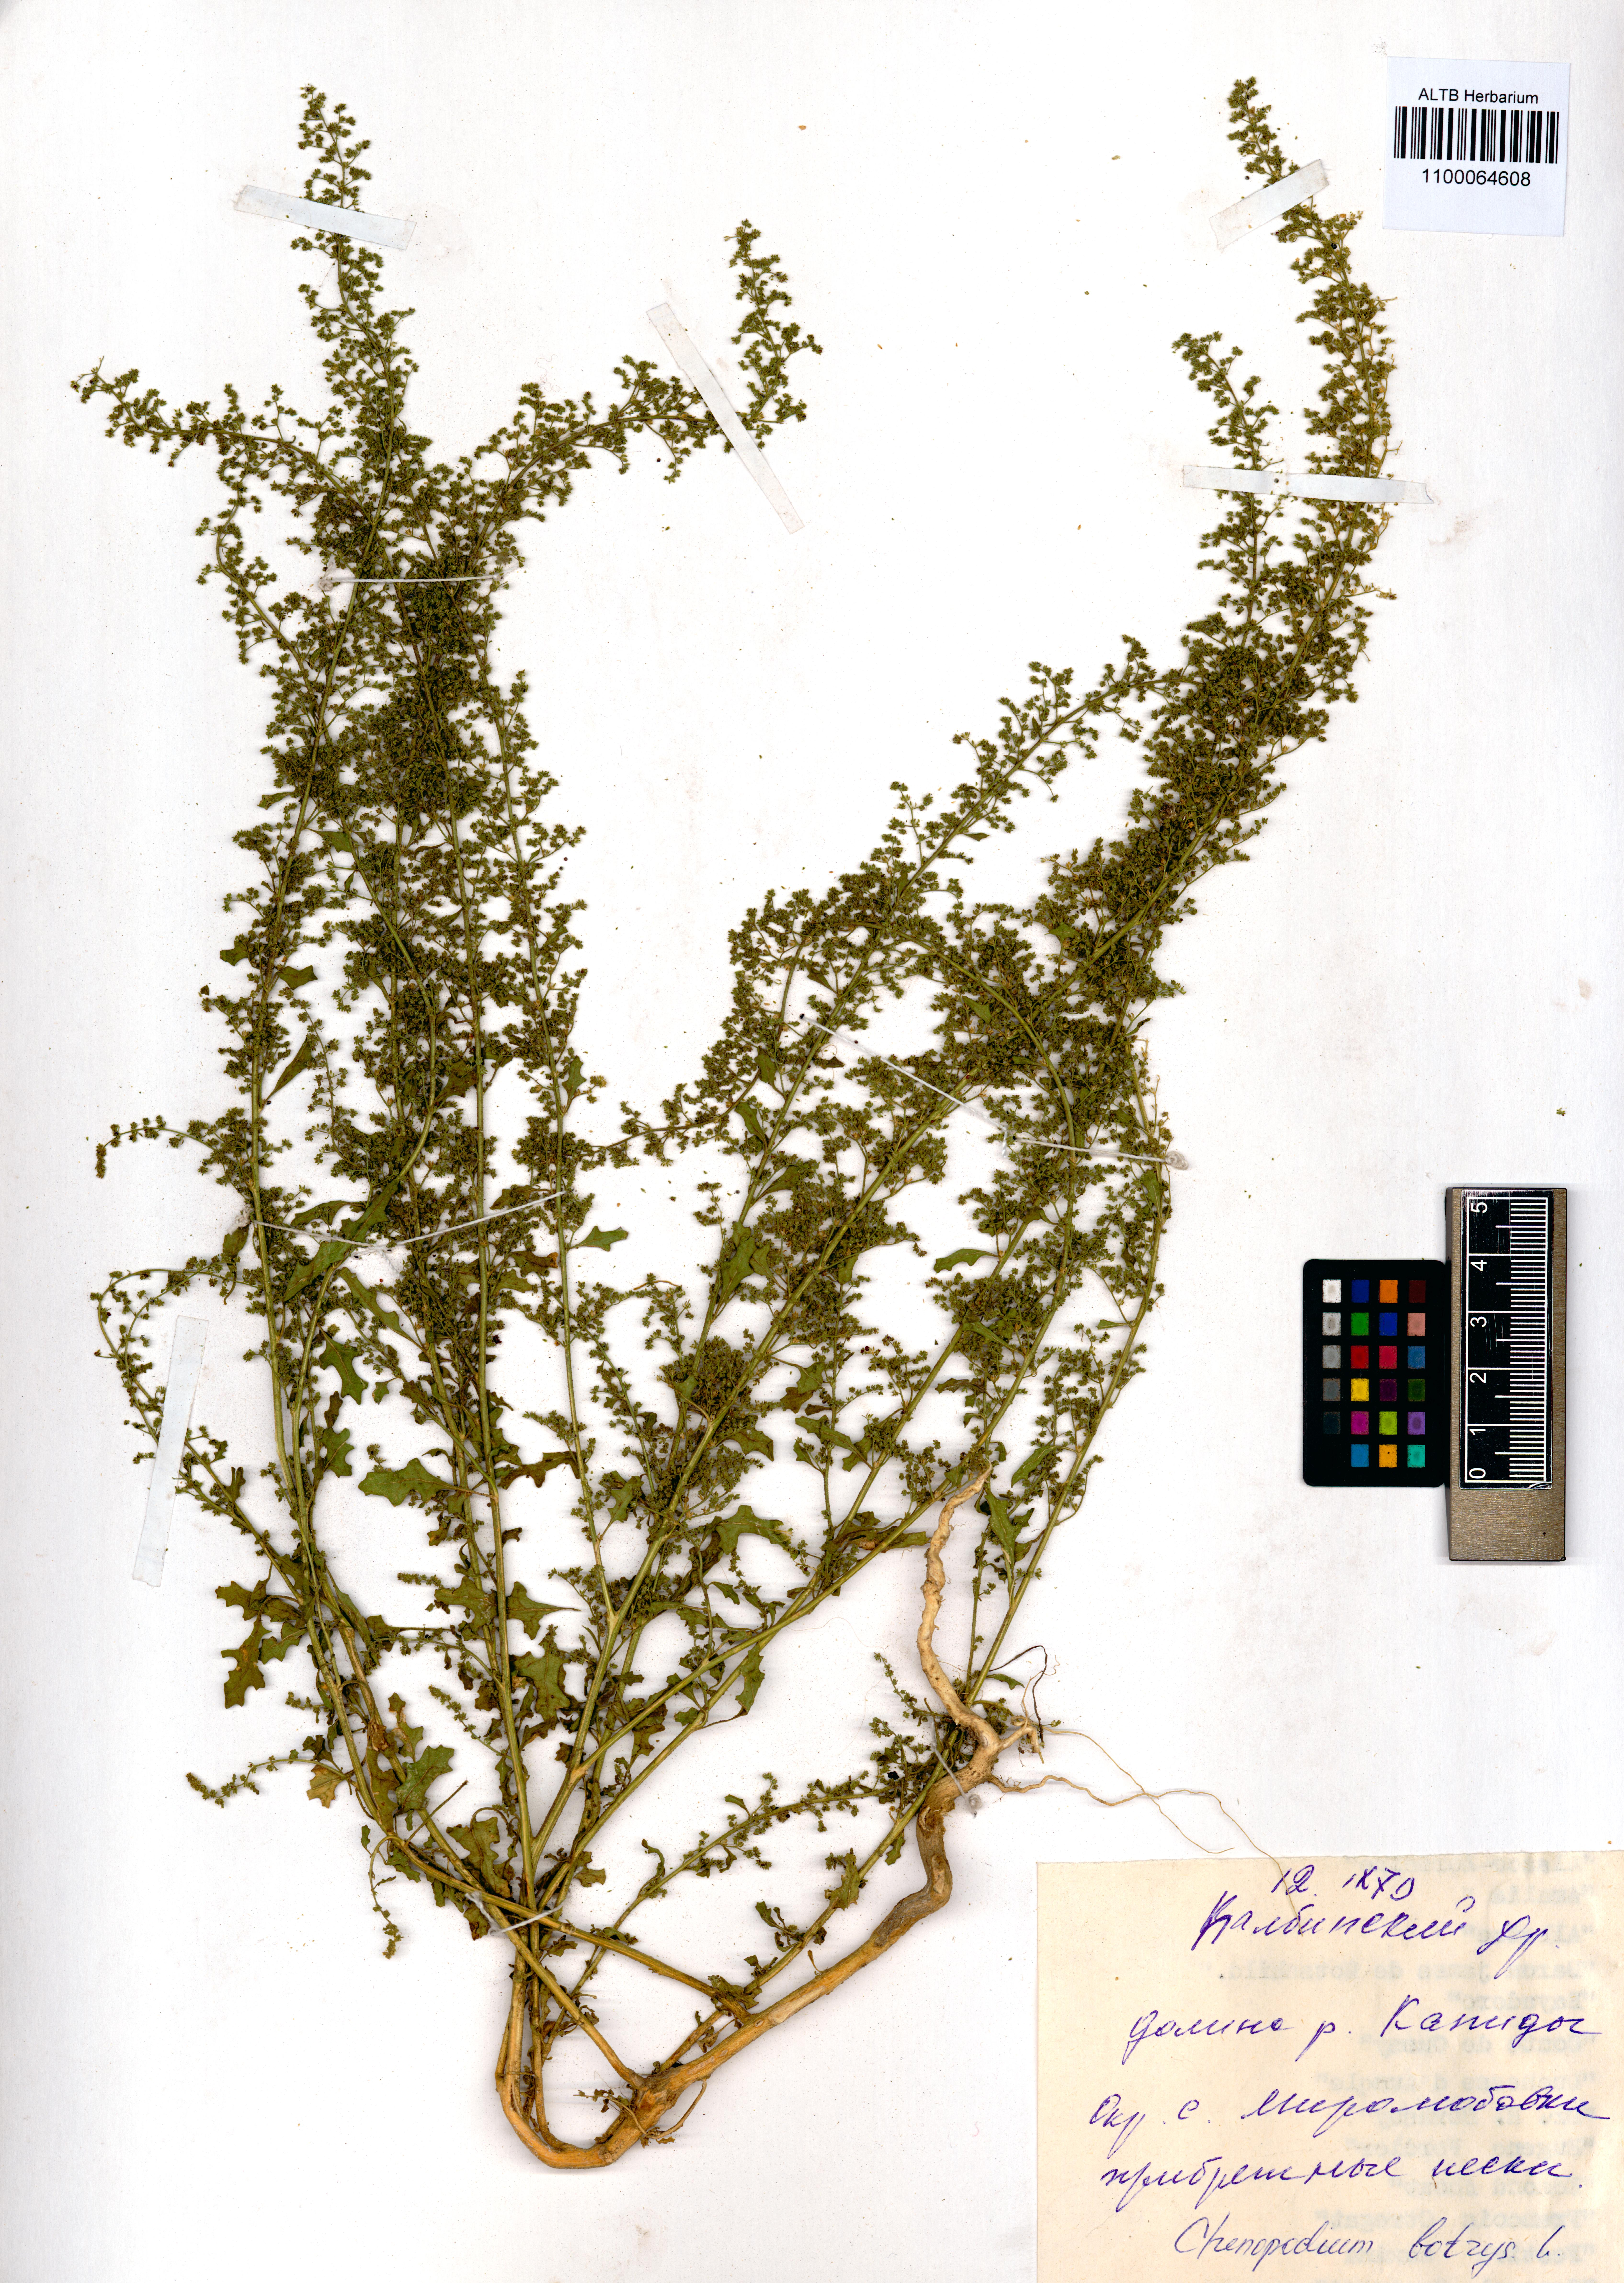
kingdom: Plantae
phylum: Tracheophyta
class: Magnoliopsida
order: Caryophyllales
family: Amaranthaceae
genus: Dysphania
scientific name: Dysphania botrys
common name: Feather-geranium
